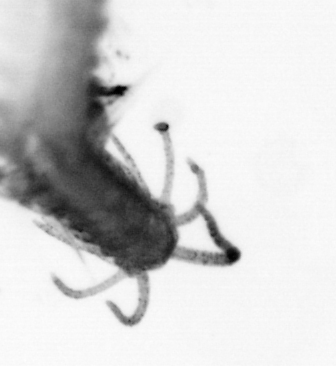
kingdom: Animalia
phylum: Arthropoda
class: Copepoda
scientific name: Copepoda
